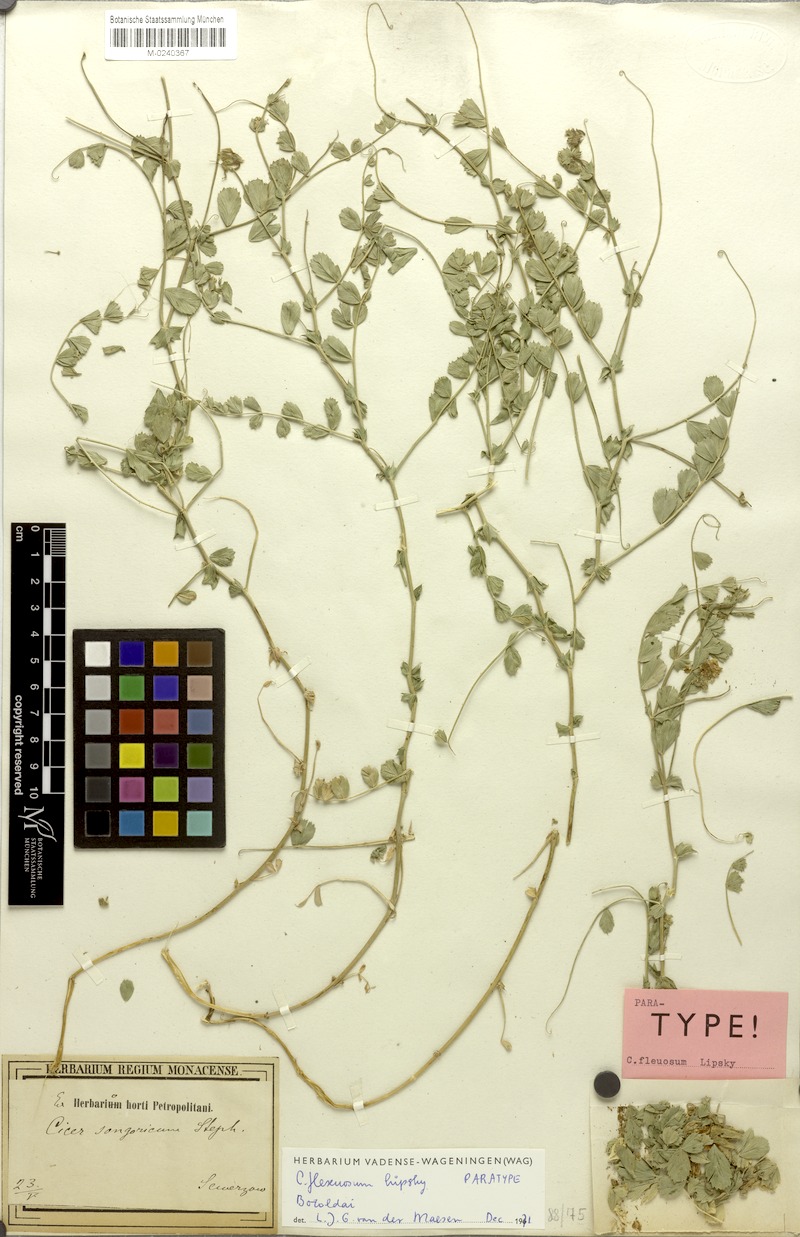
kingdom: Plantae
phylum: Tracheophyta
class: Magnoliopsida
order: Fabales
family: Fabaceae
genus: Cicer
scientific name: Cicer flexuosum
